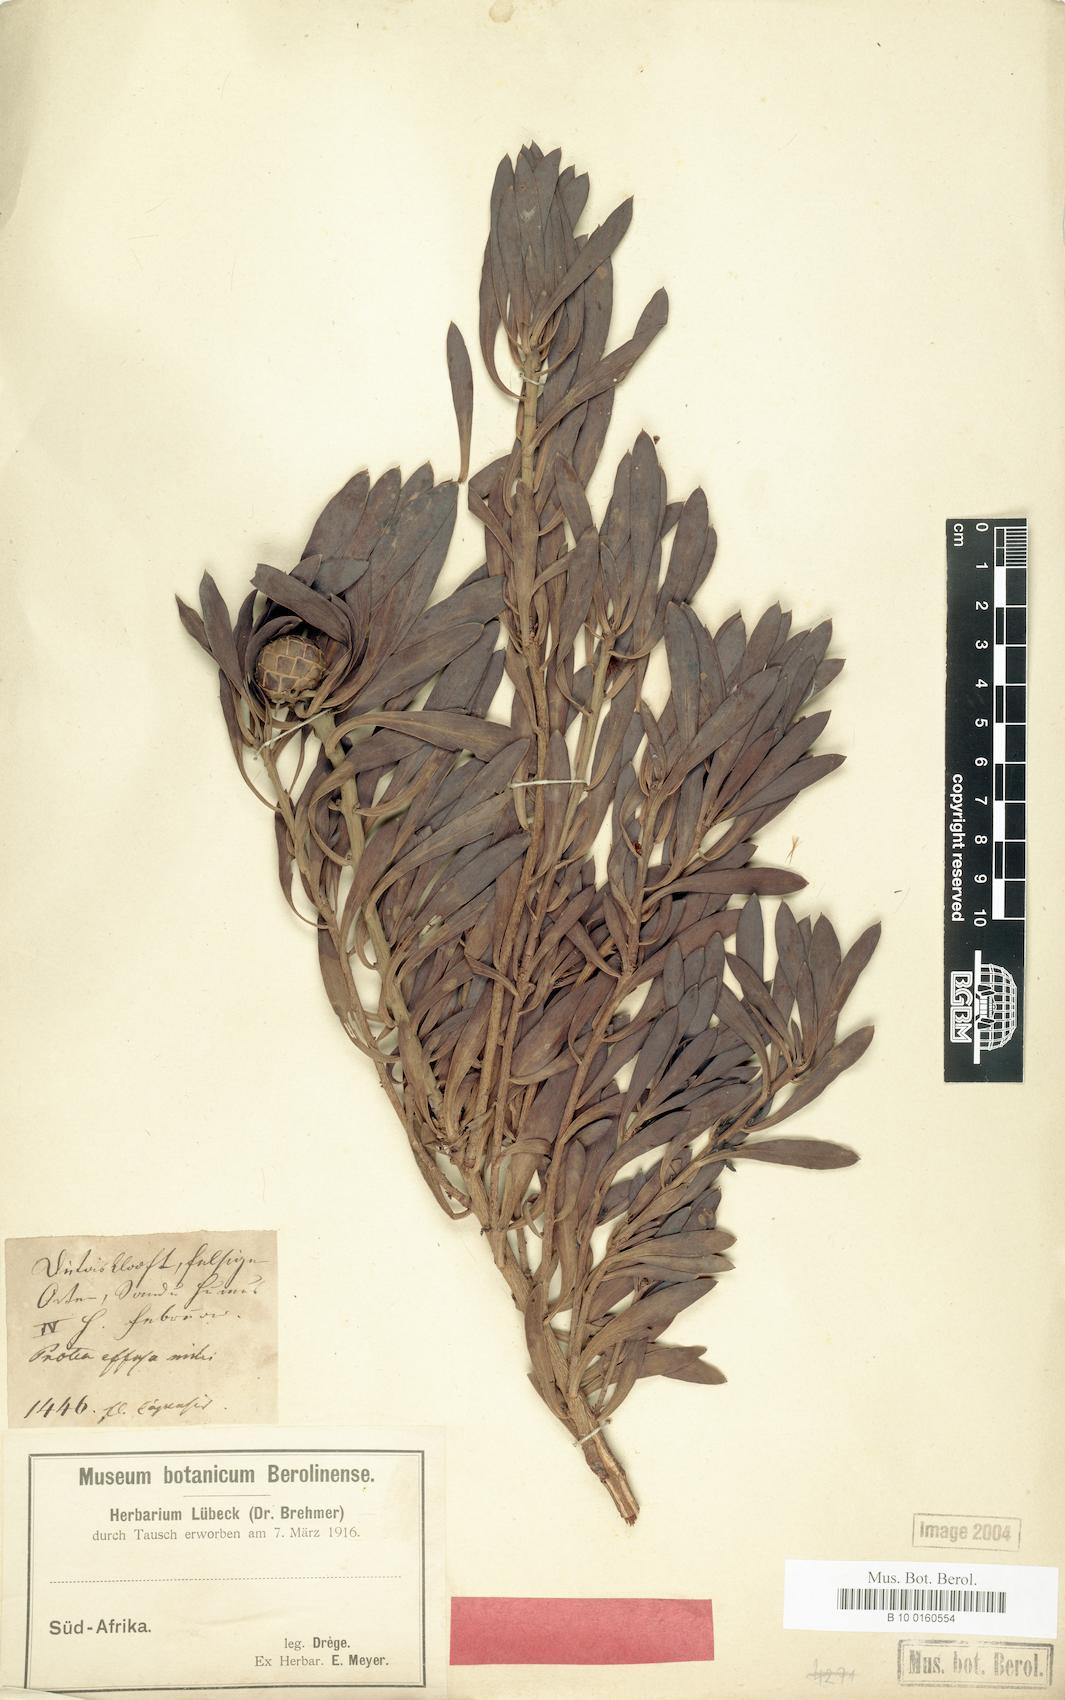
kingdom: Plantae
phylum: Tracheophyta
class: Magnoliopsida
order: Proteales
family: Proteaceae
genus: Protea
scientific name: Protea effusa
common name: Scarlet sugarbush
